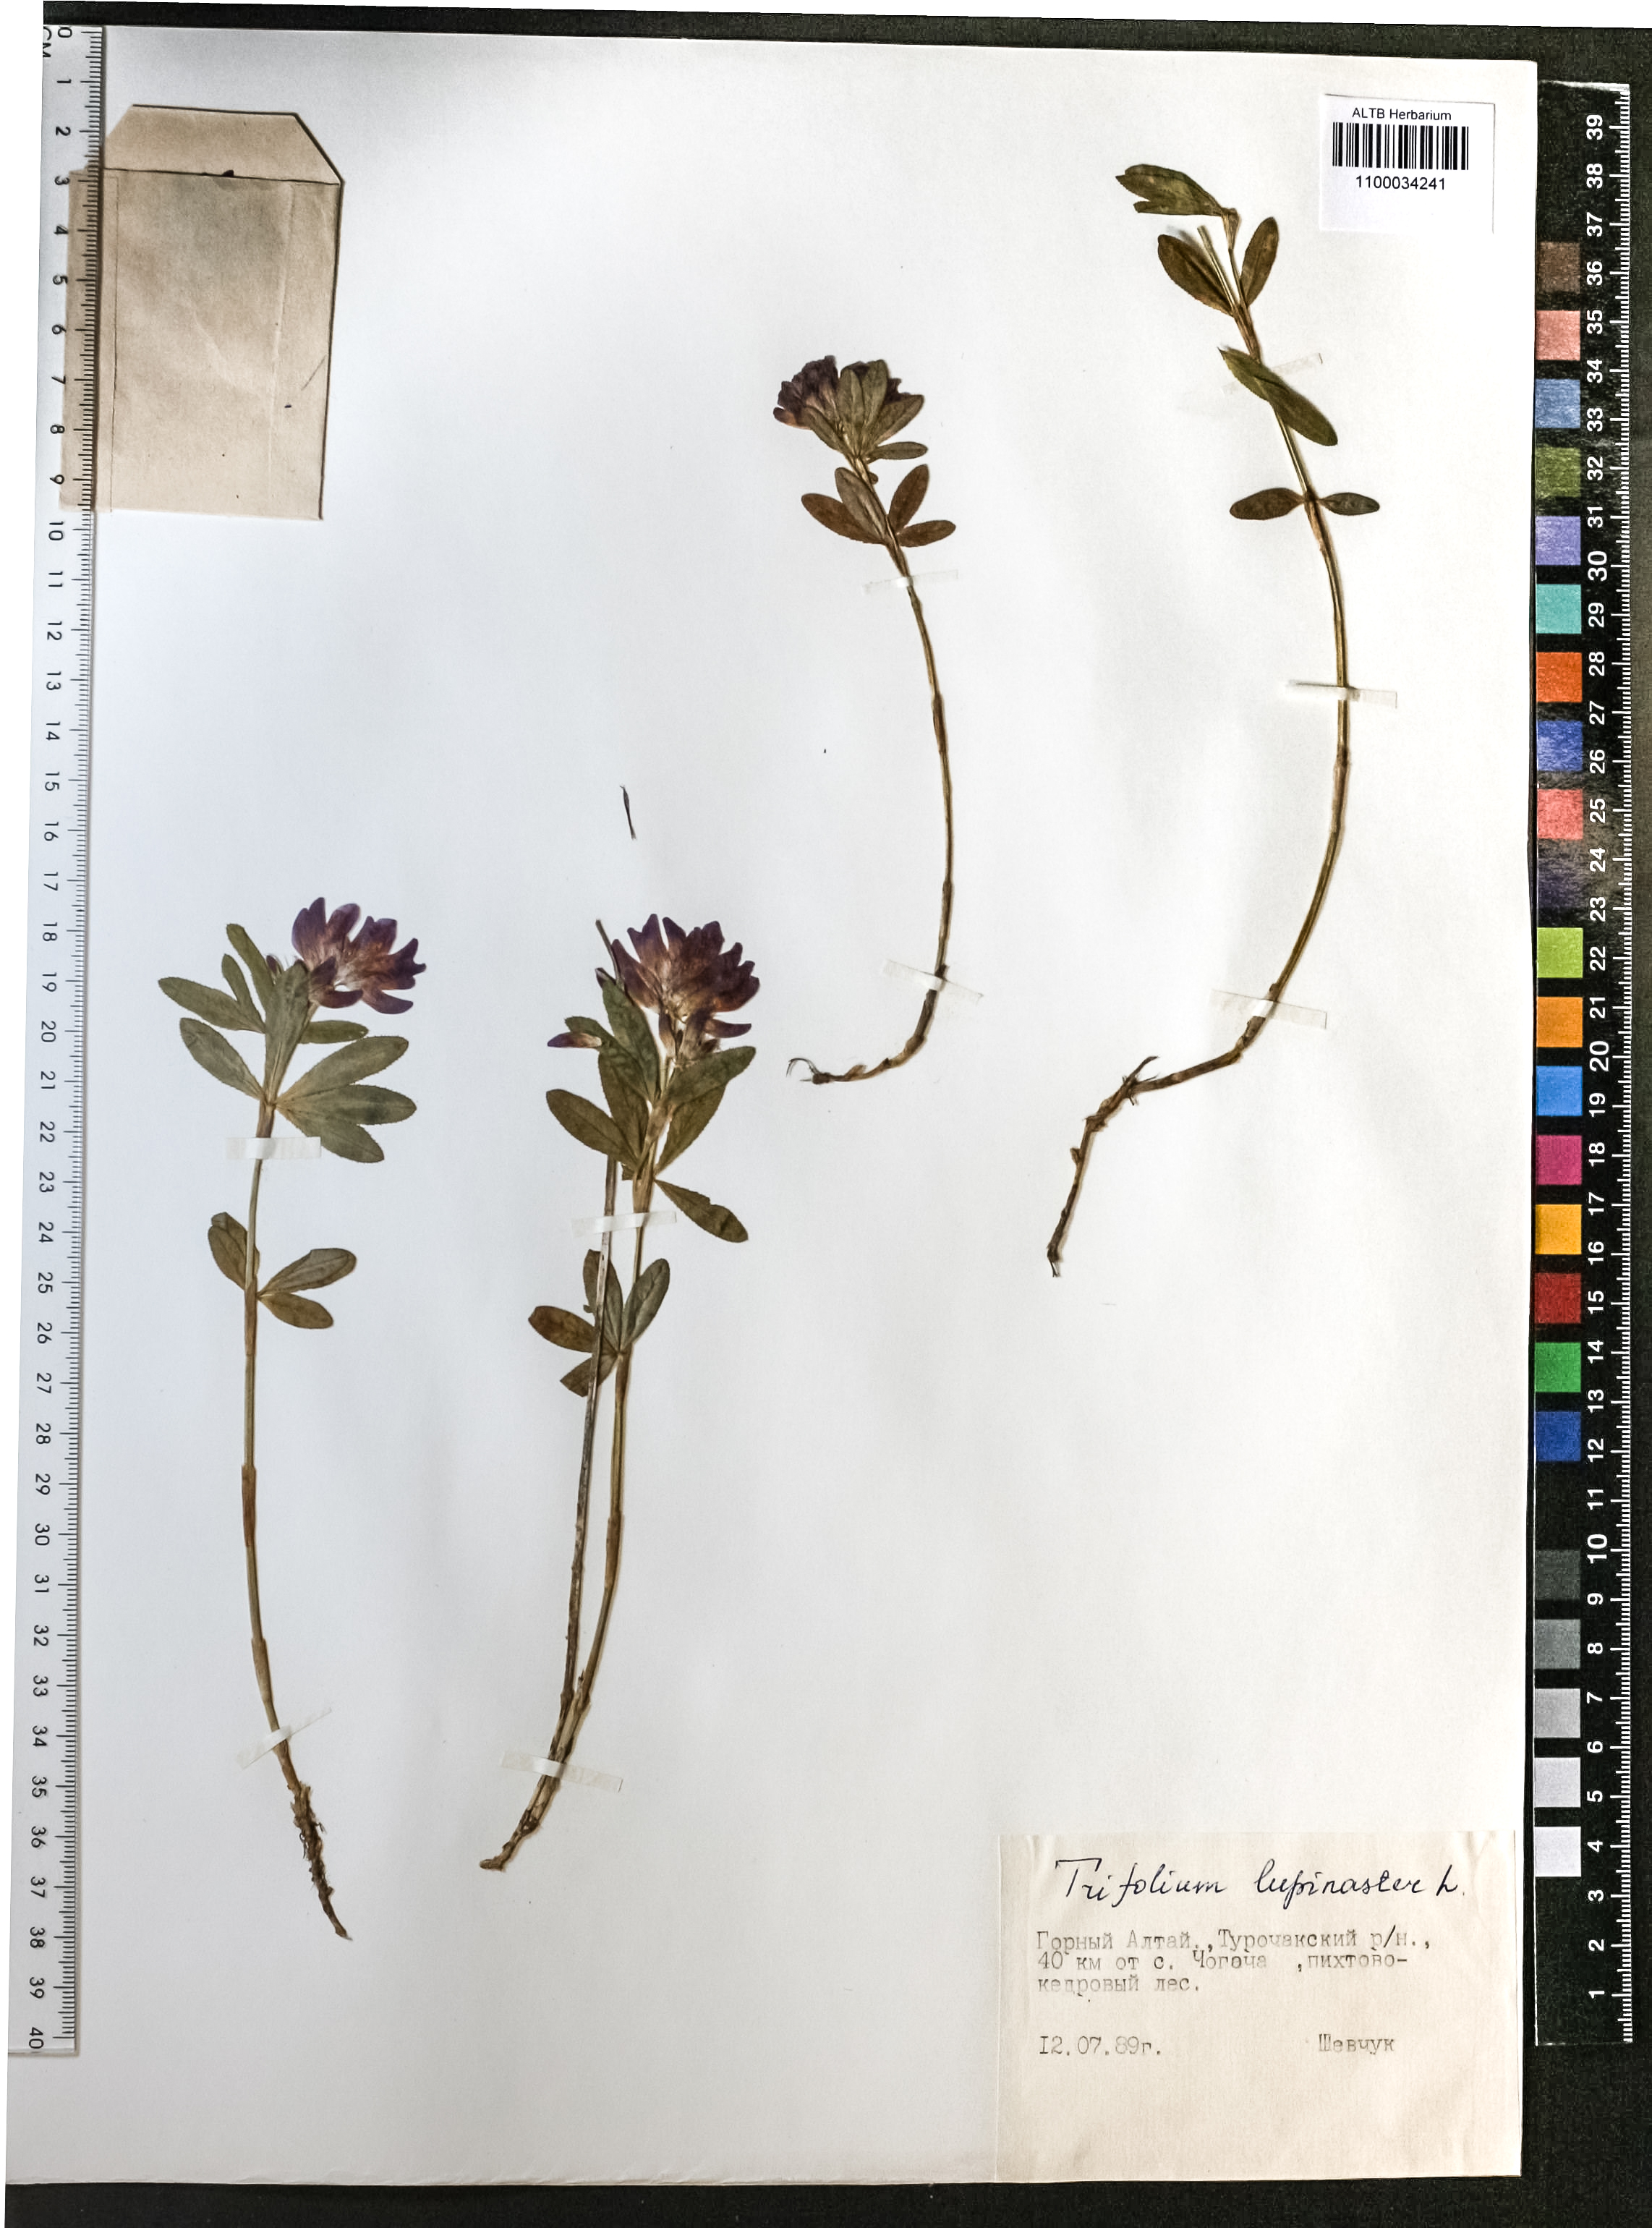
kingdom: Plantae
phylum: Tracheophyta
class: Magnoliopsida
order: Fabales
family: Fabaceae
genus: Trifolium
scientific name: Trifolium lupinaster
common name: Lupine clover
